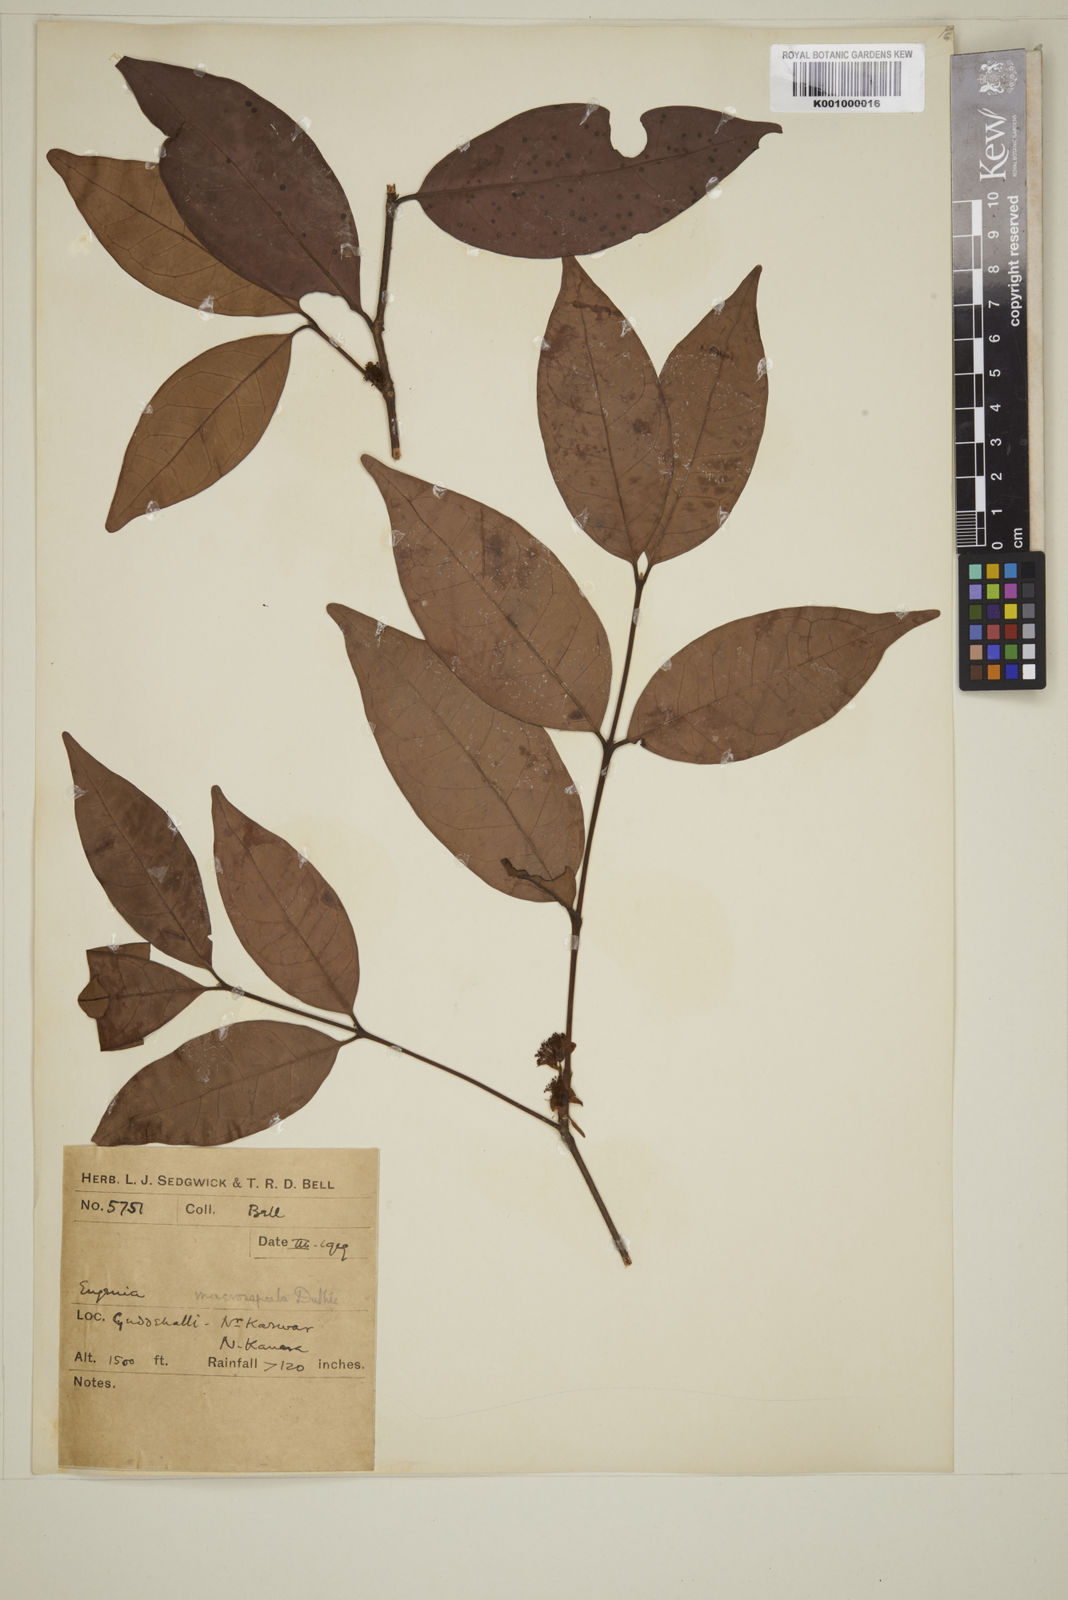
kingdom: Plantae
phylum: Tracheophyta
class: Magnoliopsida
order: Myrtales
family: Myrtaceae
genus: Eugenia
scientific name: Eugenia macrosepala
